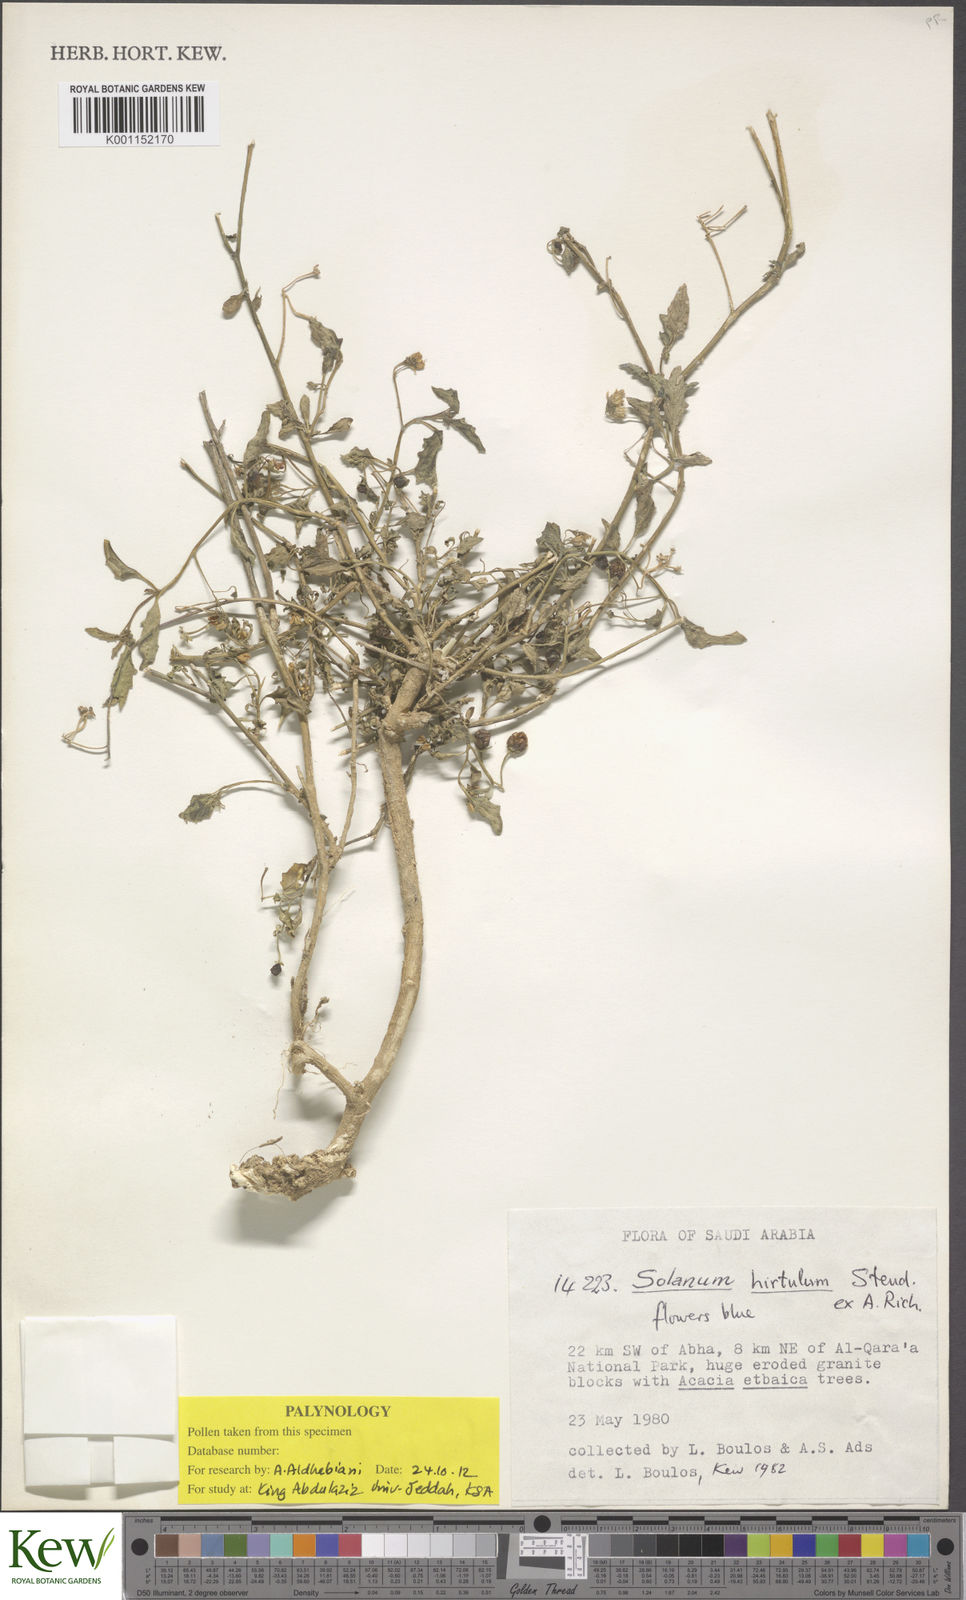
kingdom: Plantae
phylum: Tracheophyta
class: Magnoliopsida
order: Solanales
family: Solanaceae
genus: Solanum
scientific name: Solanum villosum
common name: Red nightshade
